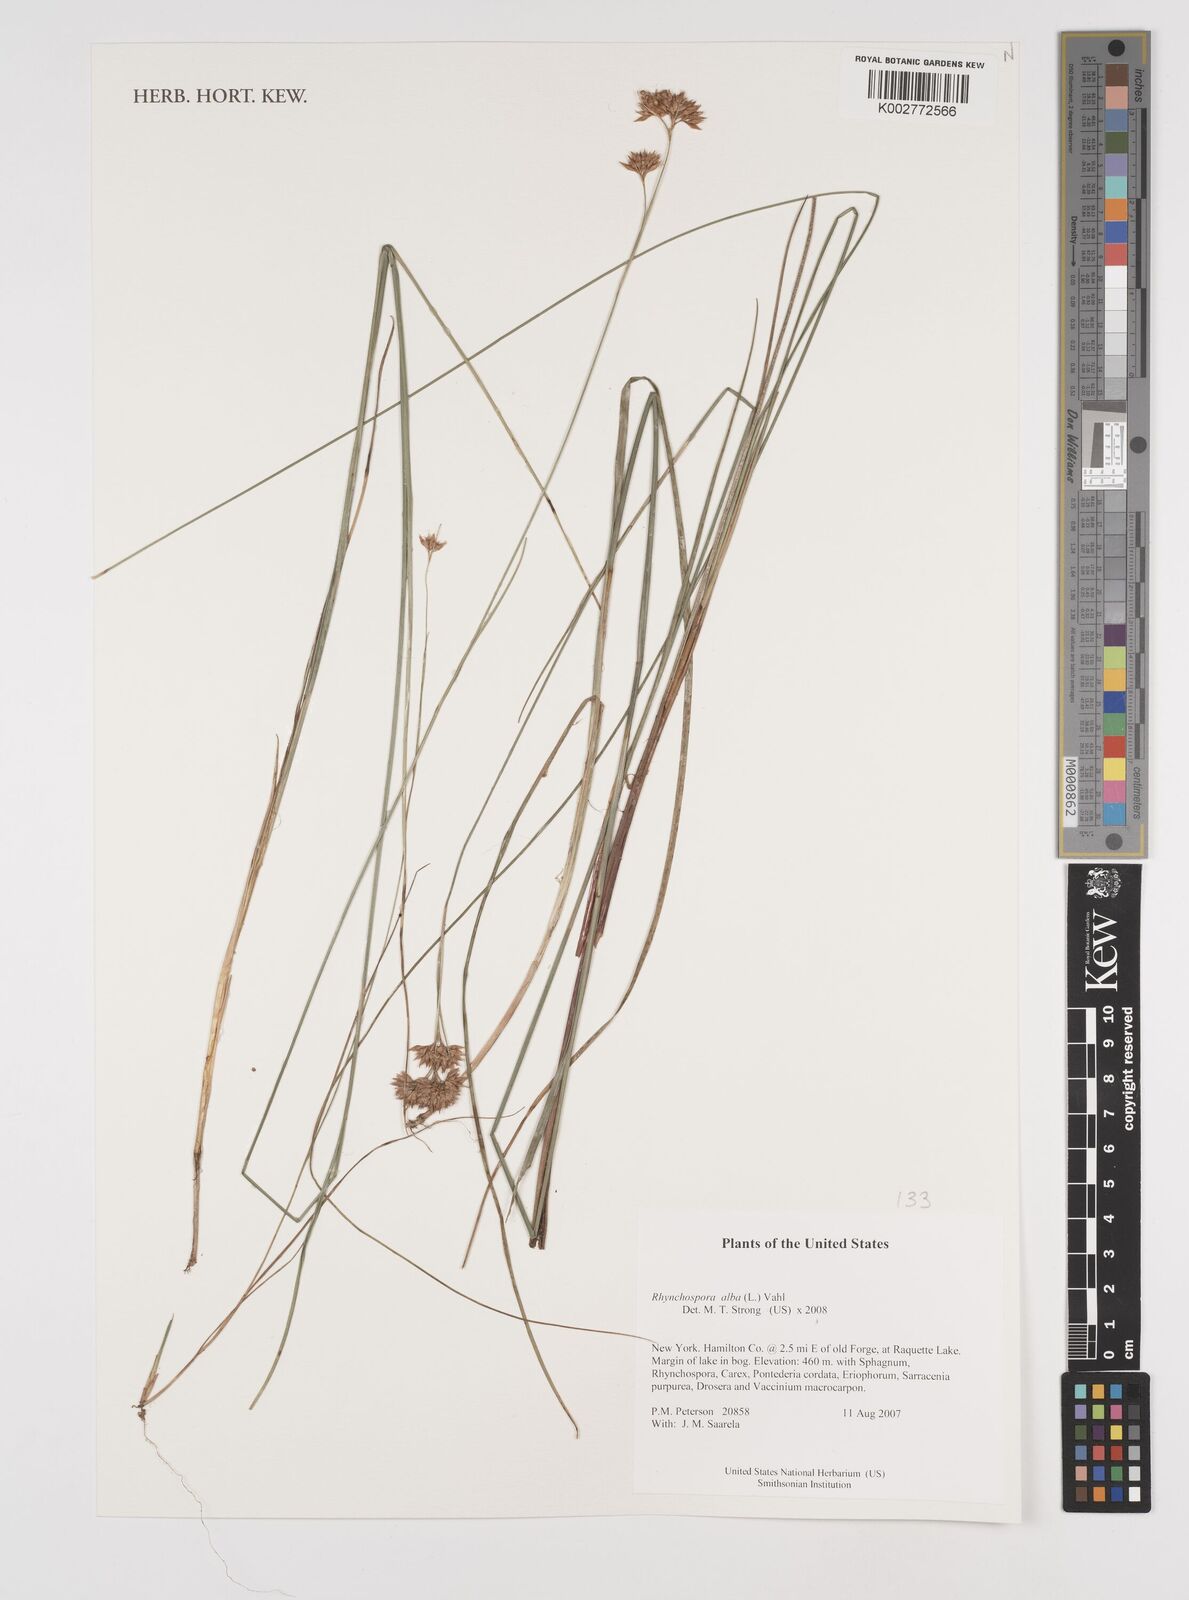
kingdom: Plantae
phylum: Tracheophyta
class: Liliopsida
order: Poales
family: Cyperaceae
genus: Rhynchospora
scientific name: Rhynchospora alba
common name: White beak-sedge
